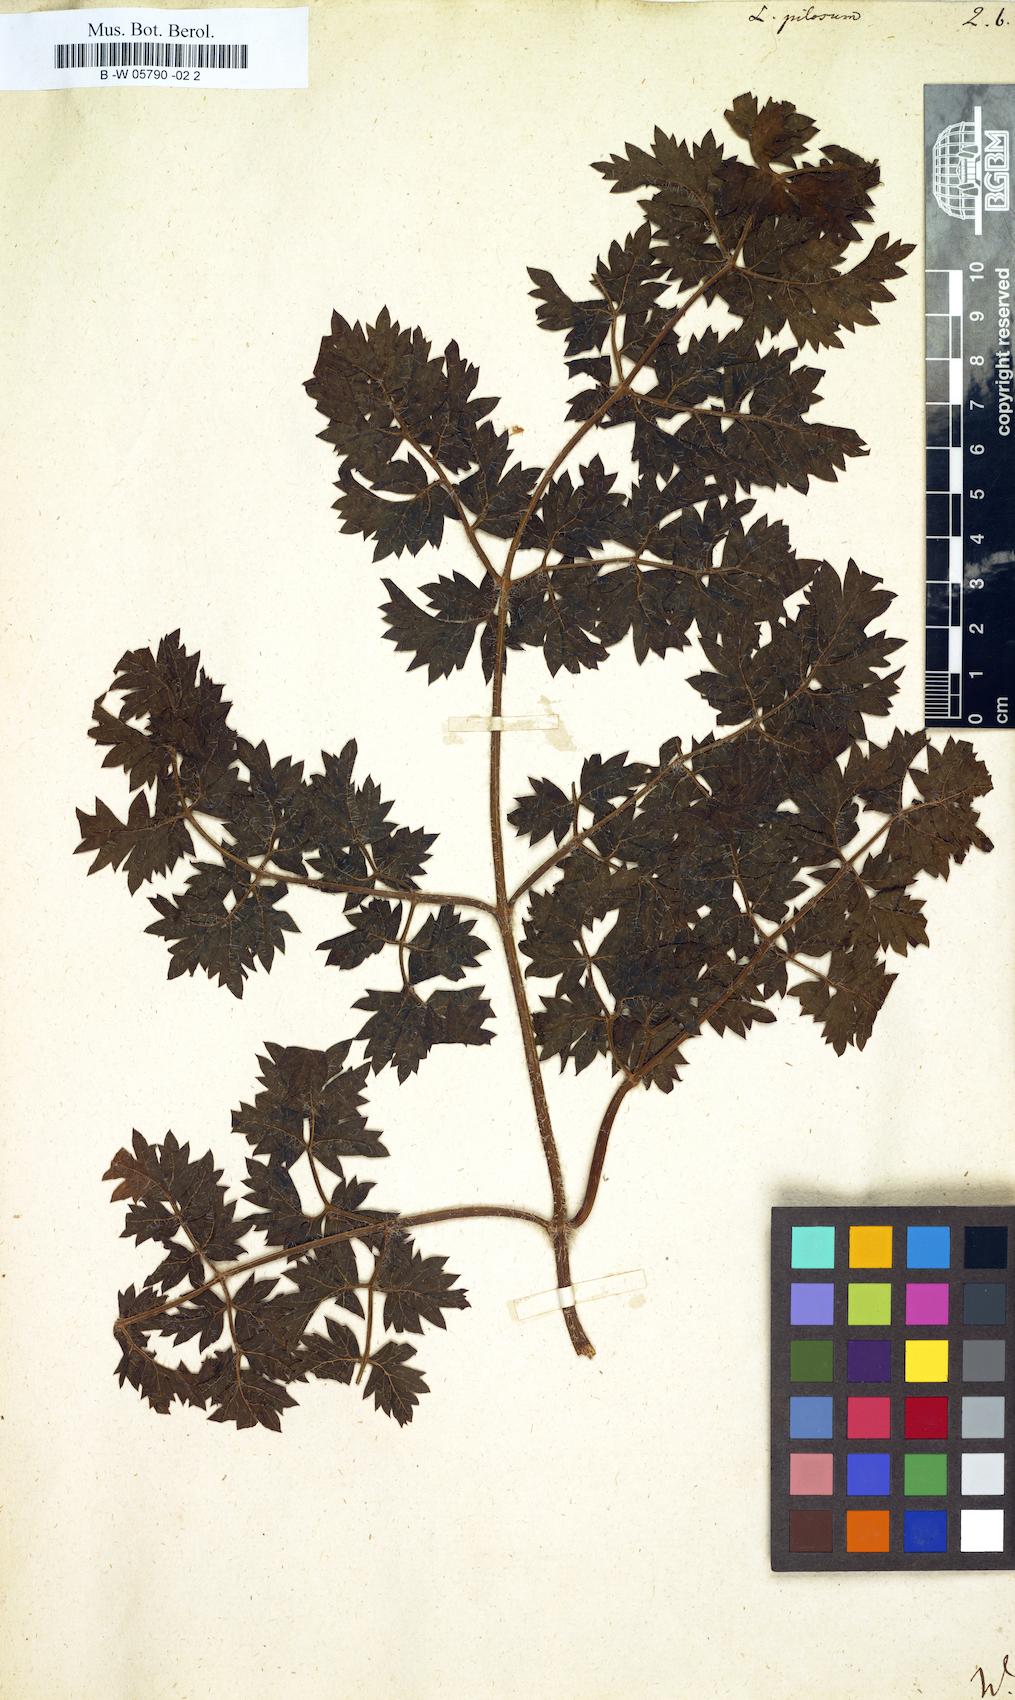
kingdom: Plantae
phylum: Tracheophyta
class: Magnoliopsida
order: Apiales
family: Apiaceae
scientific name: Apiaceae
